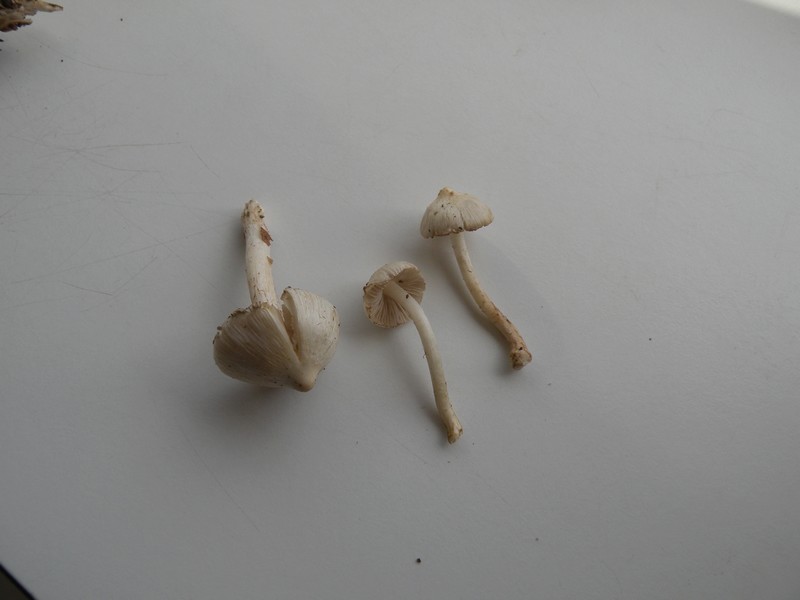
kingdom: Fungi
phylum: Basidiomycota
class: Agaricomycetes
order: Agaricales
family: Inocybaceae
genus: Inocybe
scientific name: Inocybe
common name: almindelig trævlhat
